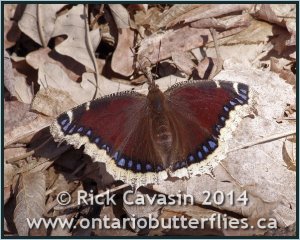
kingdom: Animalia
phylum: Arthropoda
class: Insecta
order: Lepidoptera
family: Nymphalidae
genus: Nymphalis
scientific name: Nymphalis antiopa
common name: Mourning Cloak
